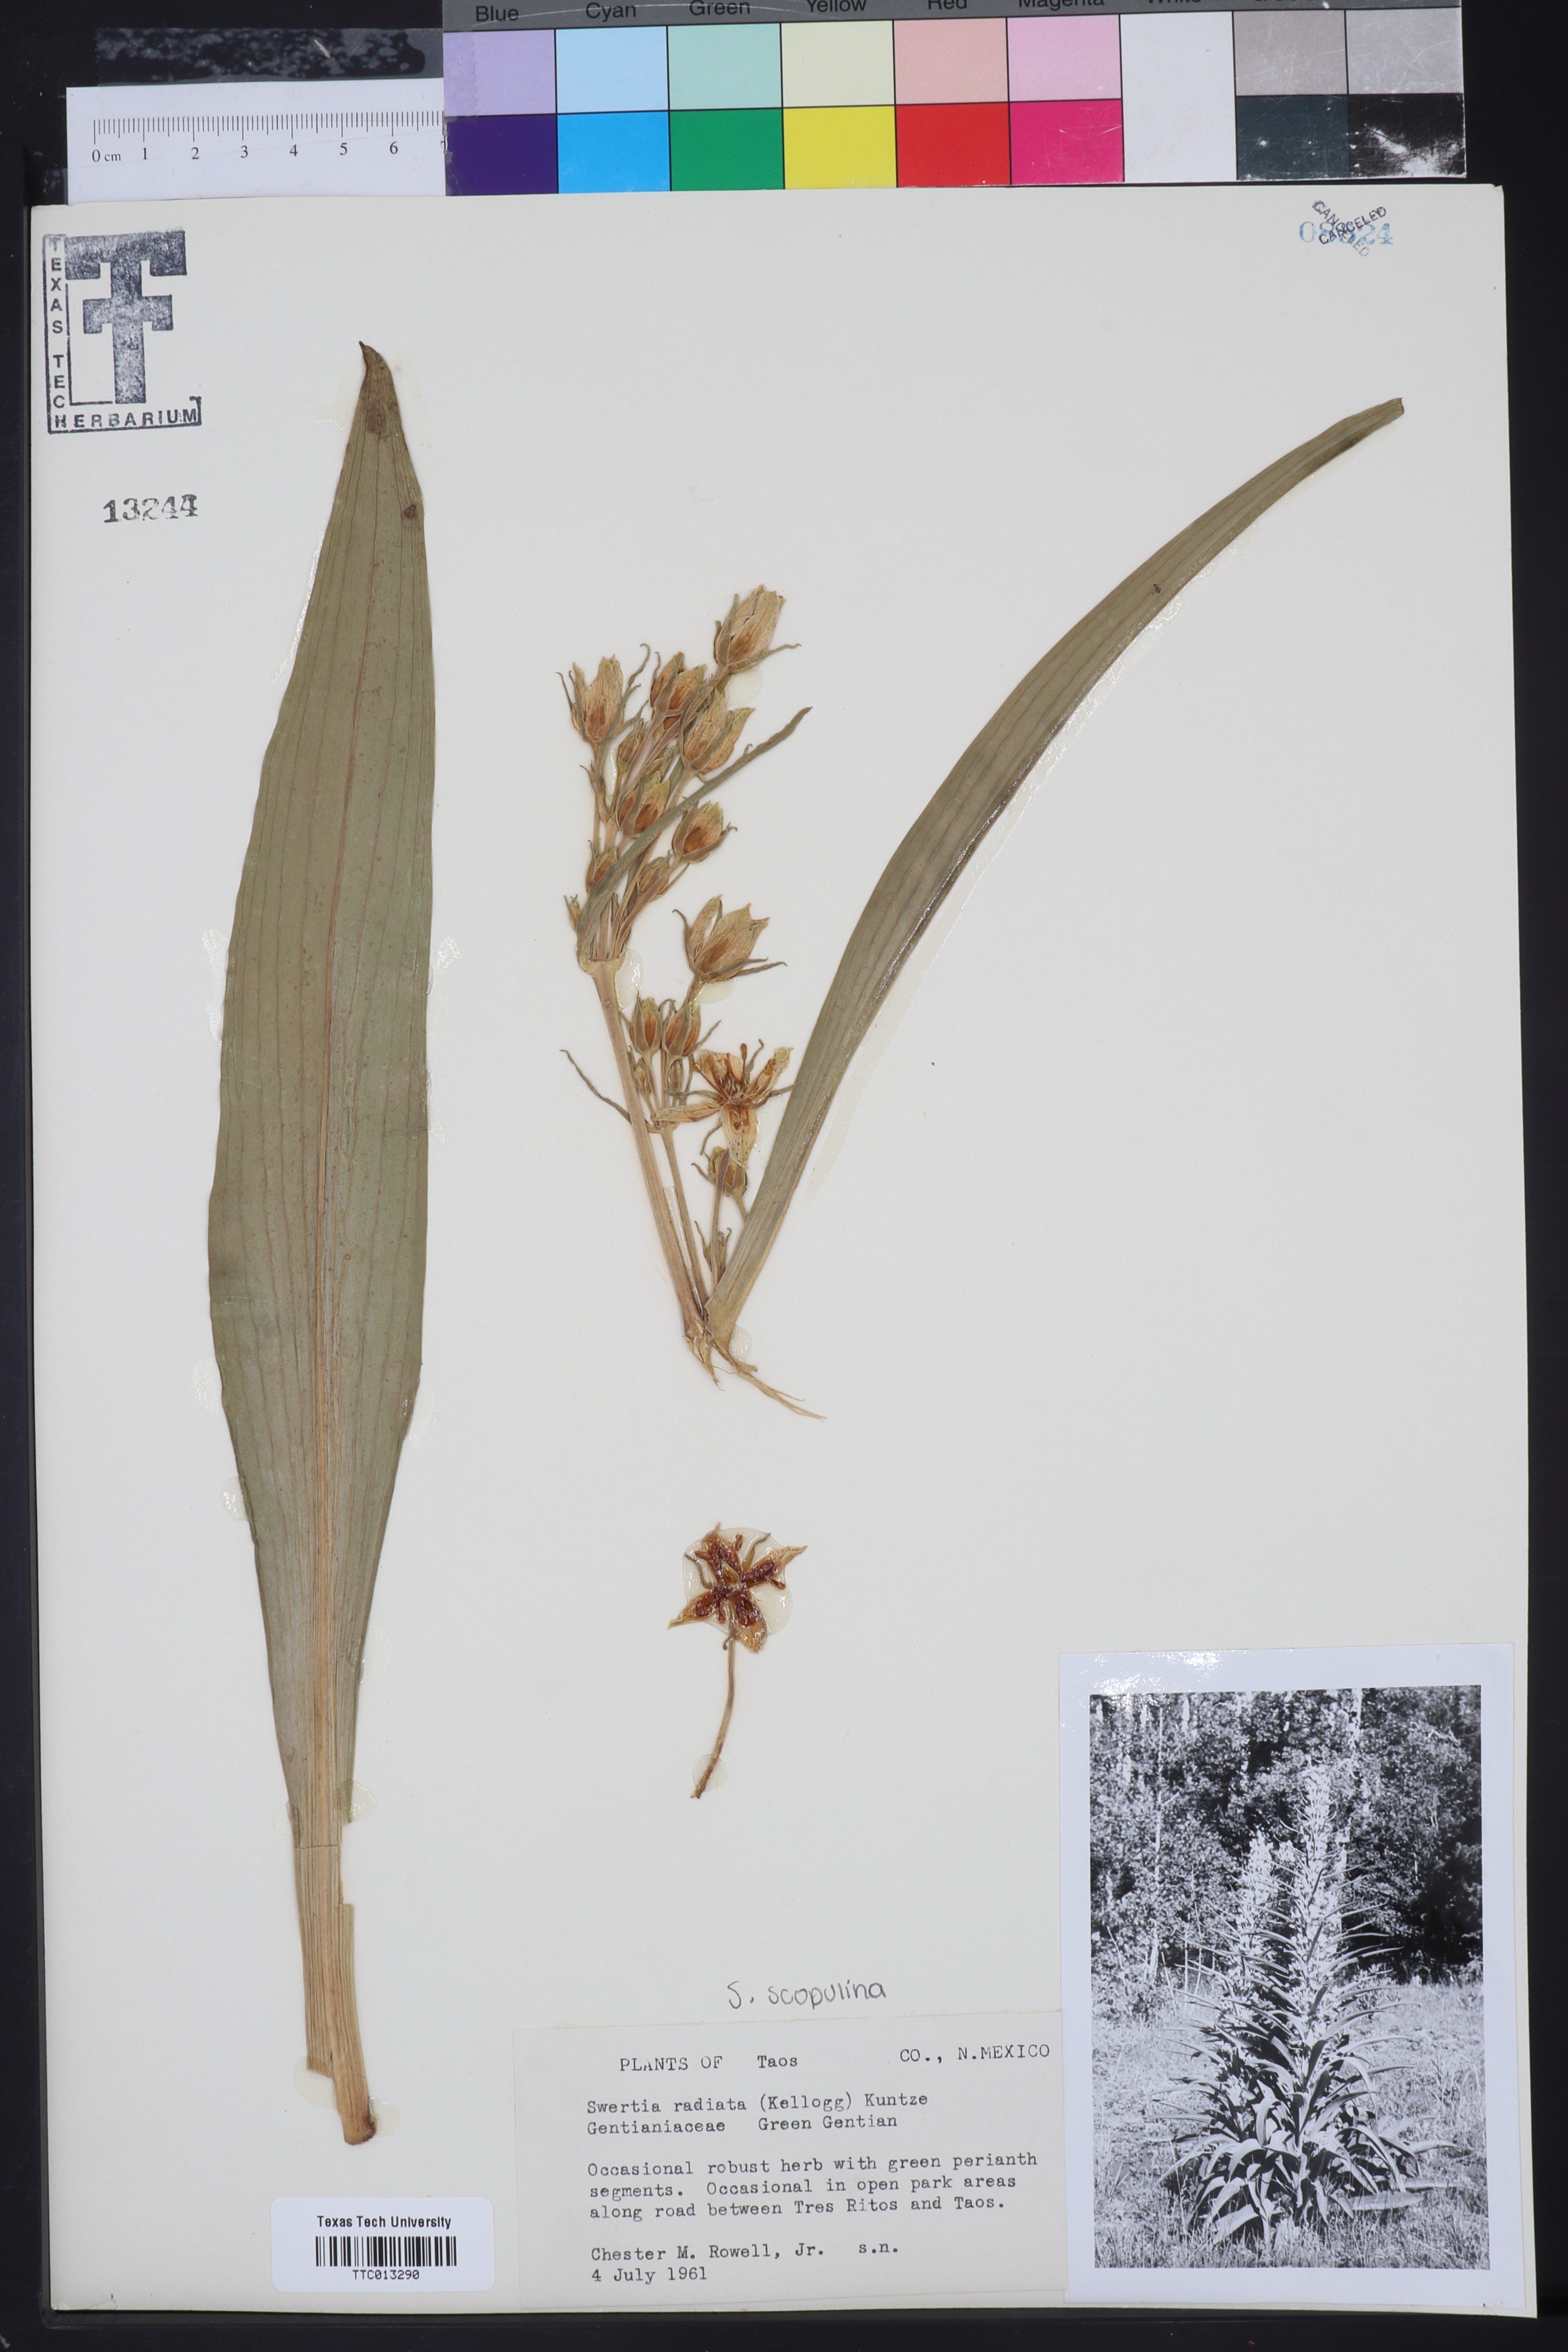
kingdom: Plantae
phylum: Tracheophyta
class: Magnoliopsida
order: Gentianales
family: Gentianaceae
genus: Frasera
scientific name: Frasera speciosa
